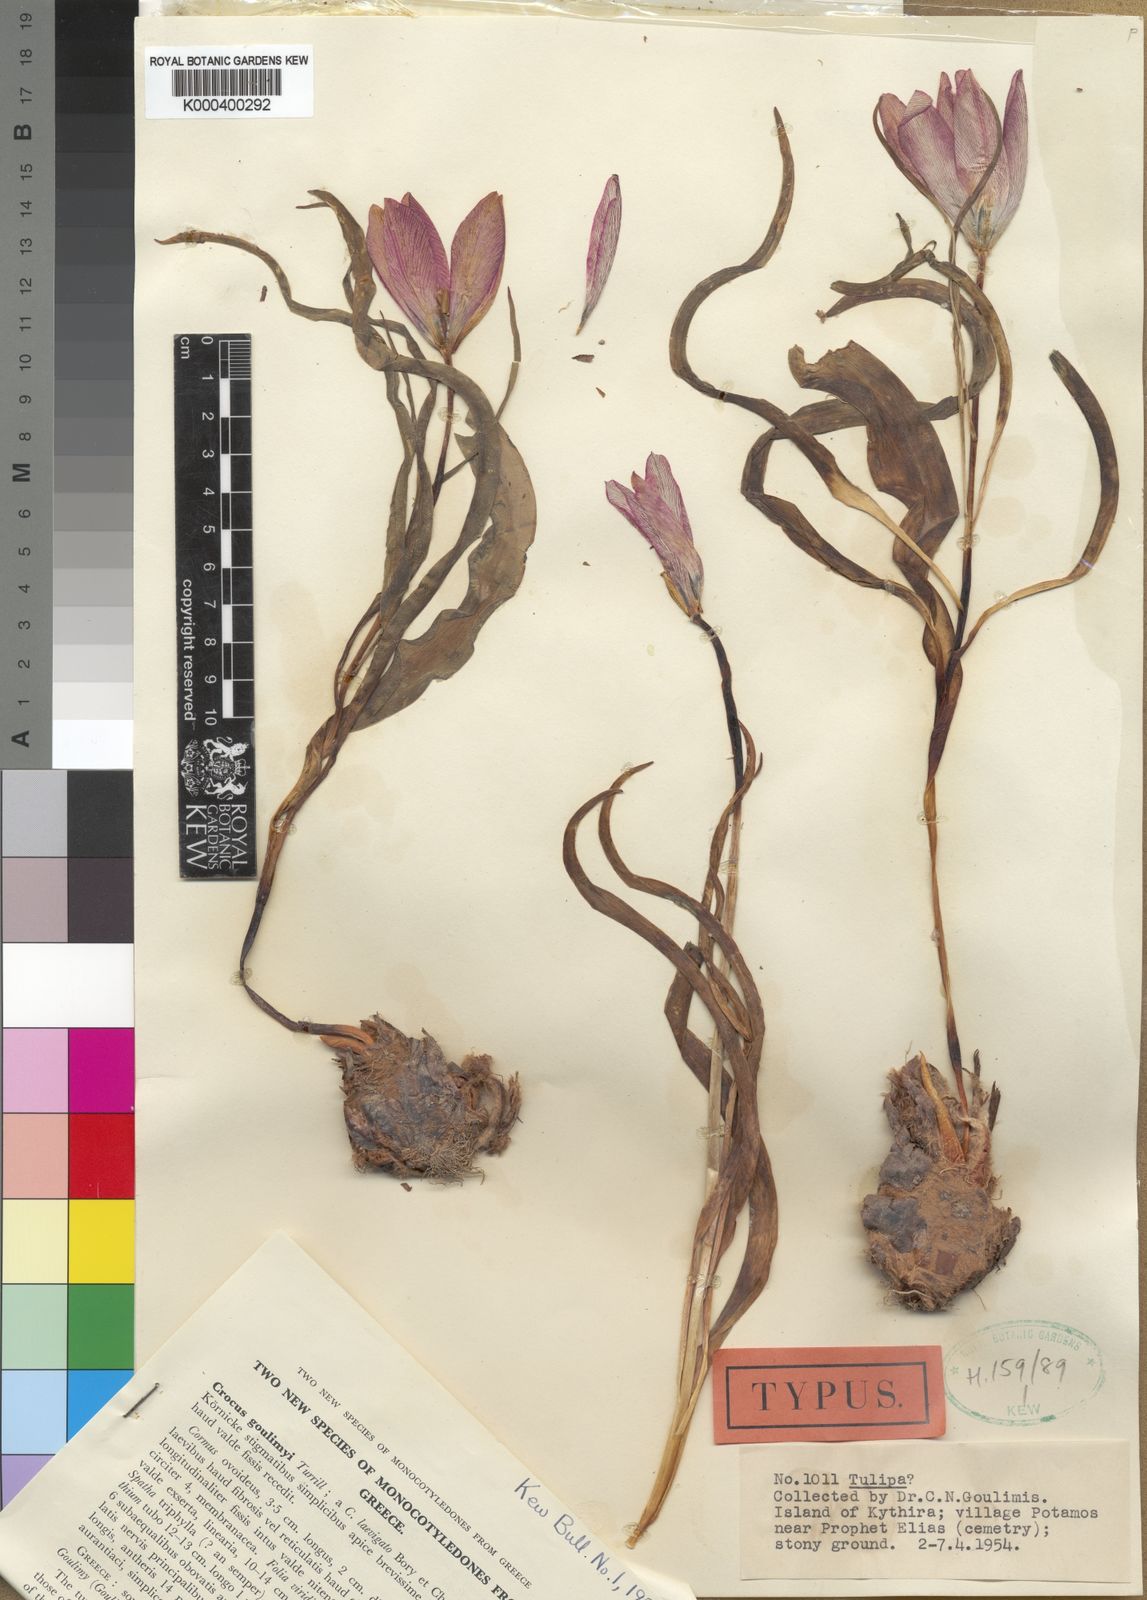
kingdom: Plantae
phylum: Tracheophyta
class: Liliopsida
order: Liliales
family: Liliaceae
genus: Tulipa
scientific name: Tulipa orphanidea
